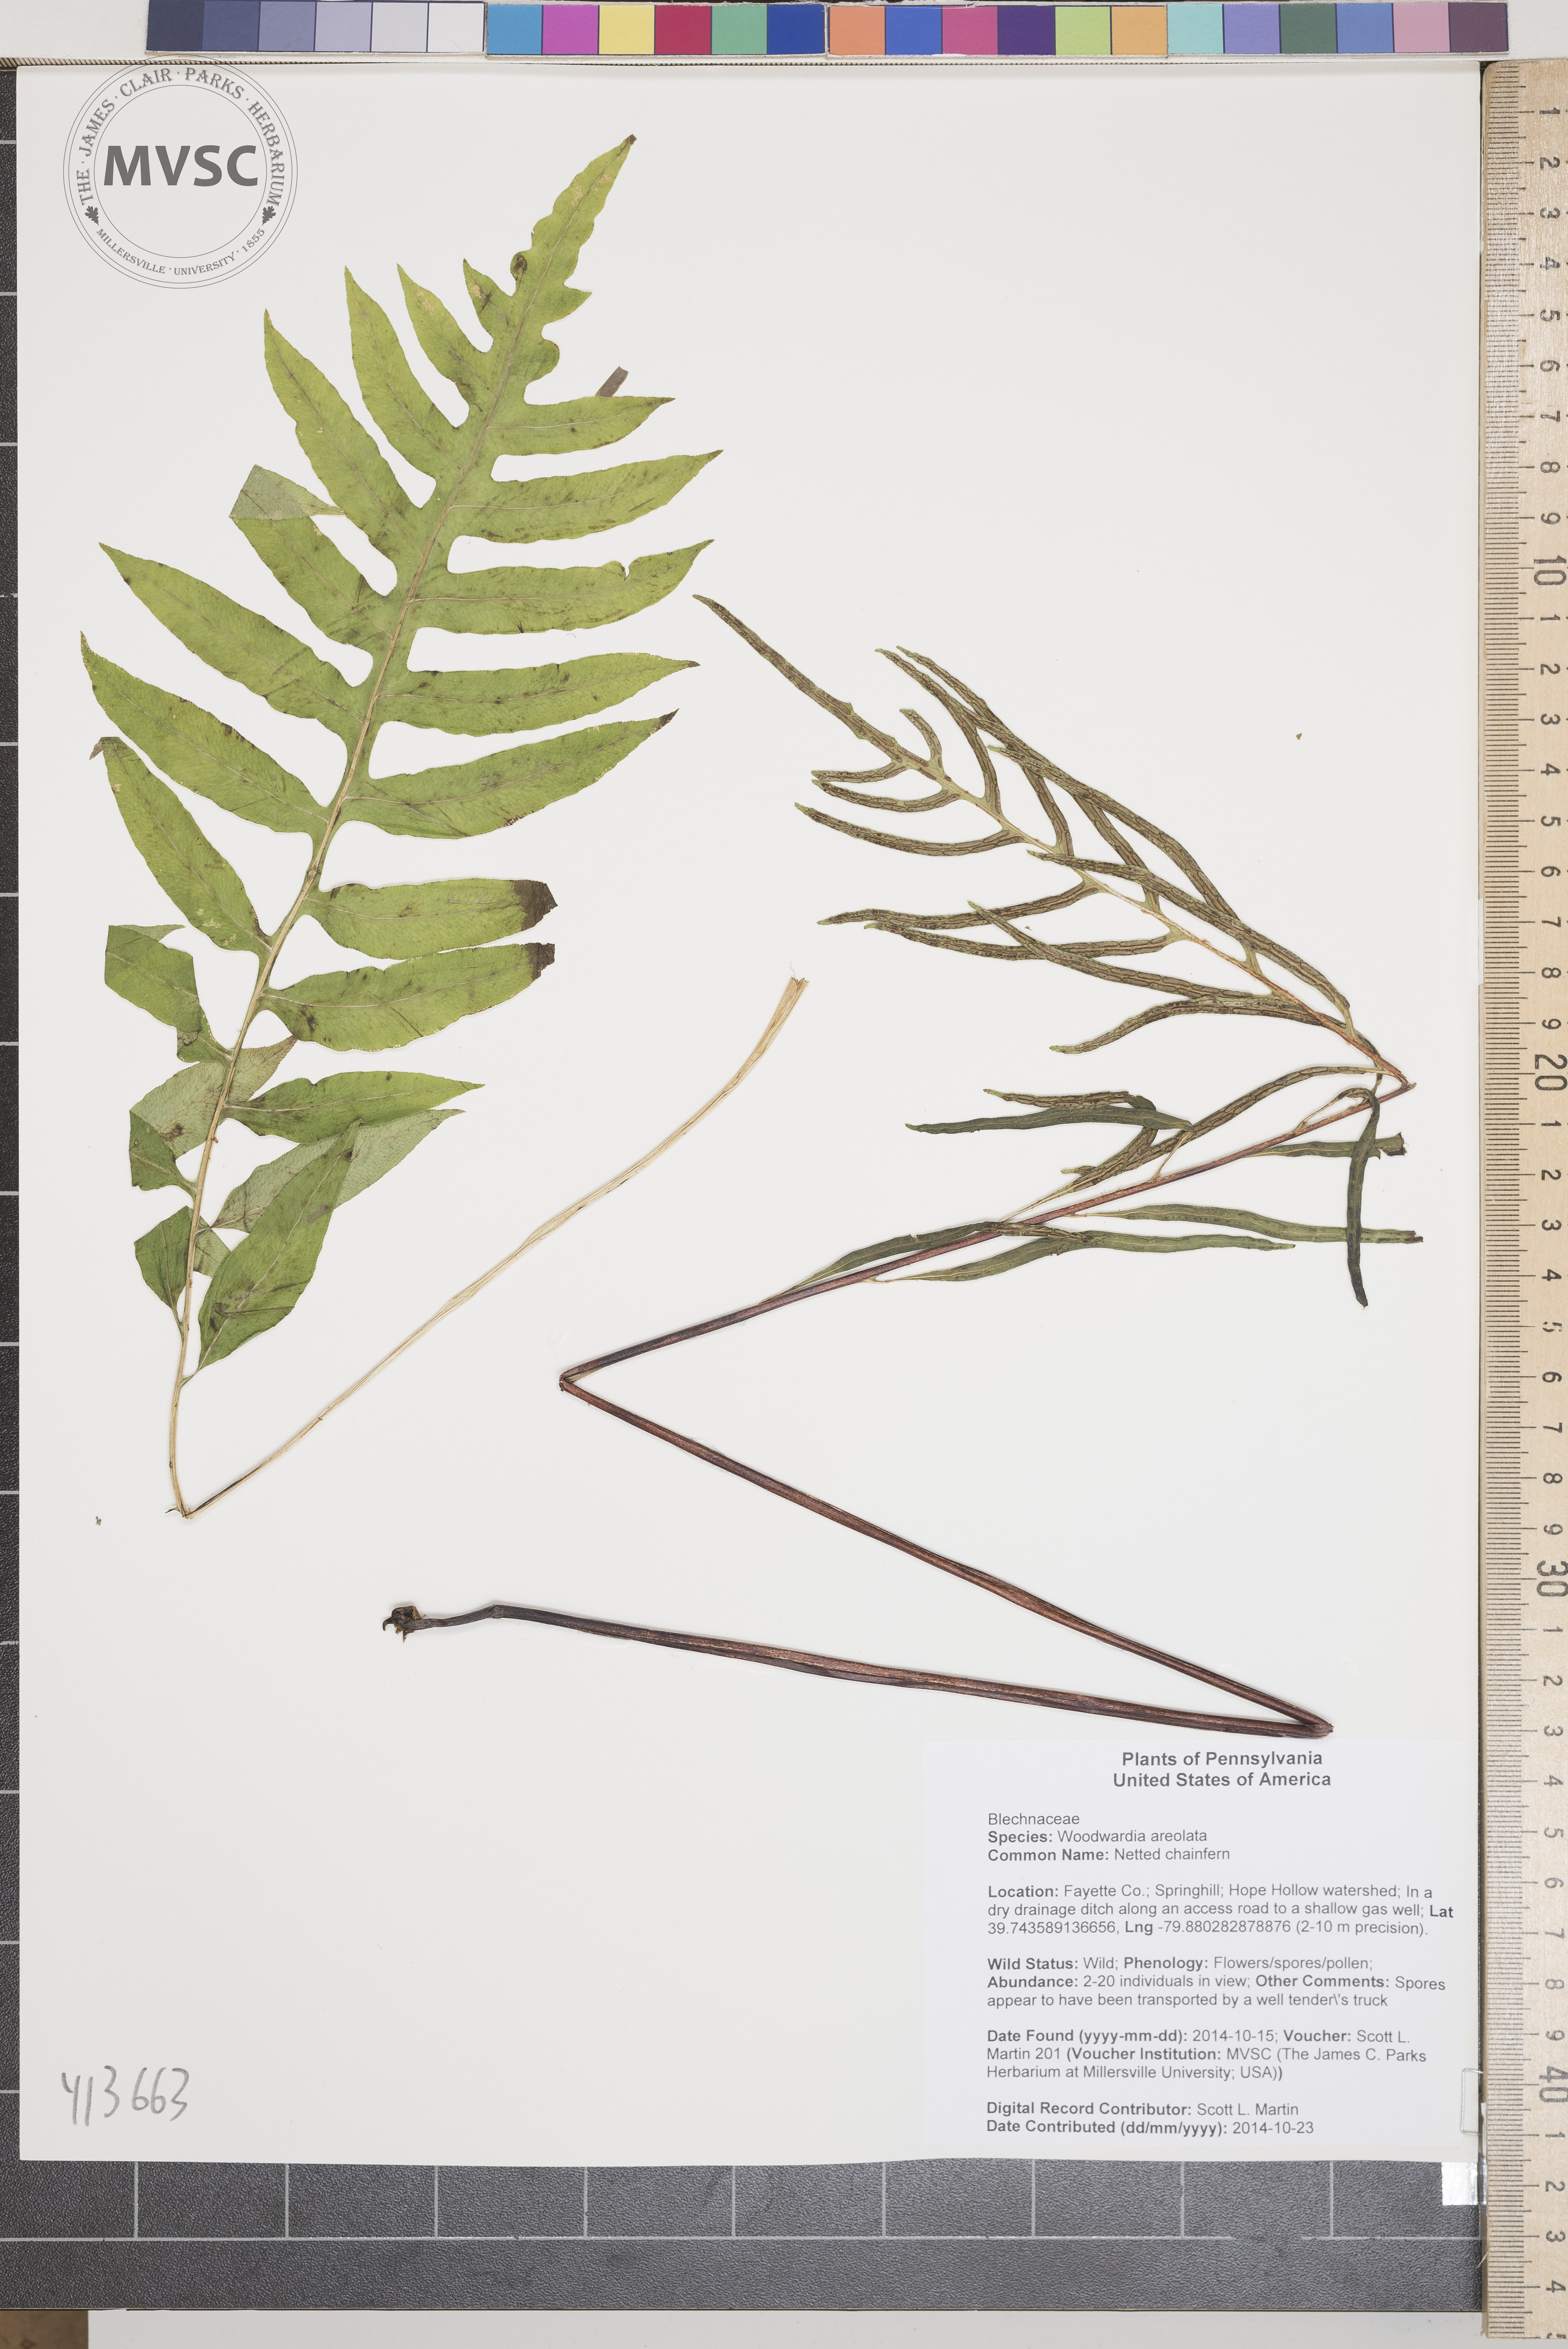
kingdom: Plantae
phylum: Tracheophyta
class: Polypodiopsida
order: Polypodiales
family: Blechnaceae
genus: Lorinseria
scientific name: Lorinseria areolata
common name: Netted chainfern
